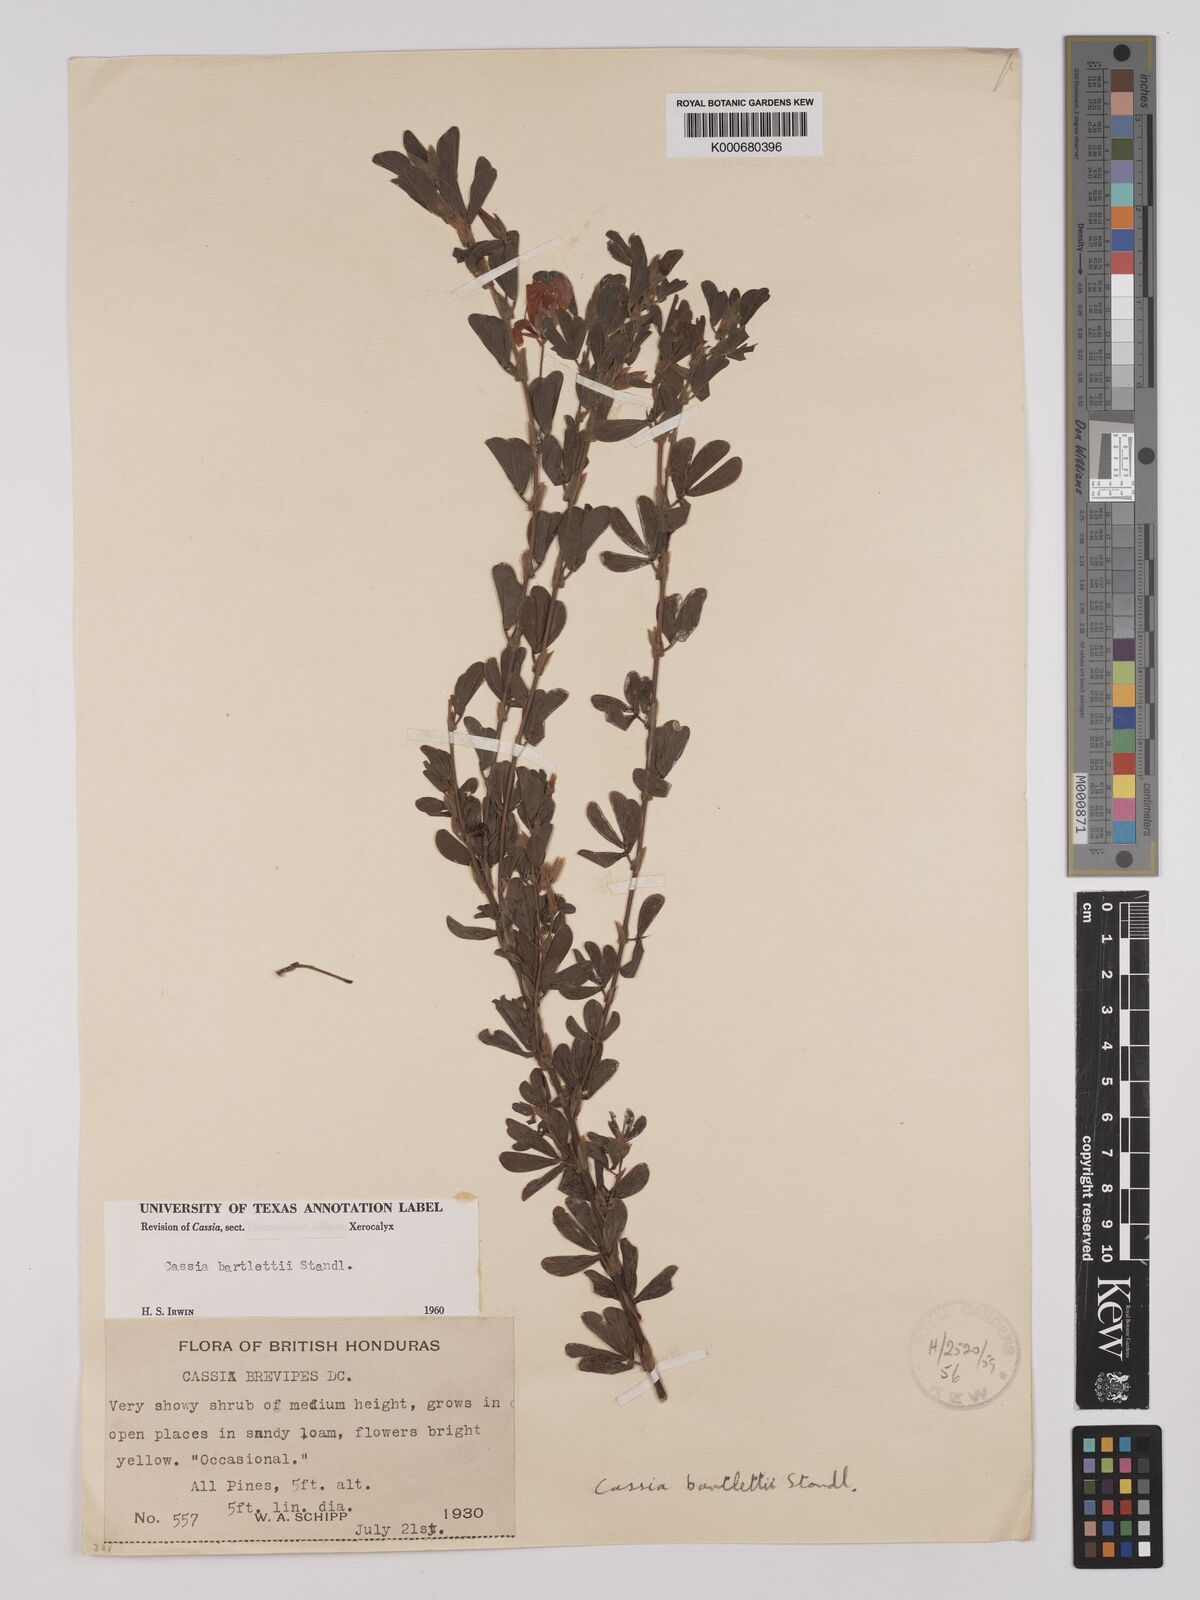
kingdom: Plantae
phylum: Tracheophyta
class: Magnoliopsida
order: Fabales
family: Fabaceae
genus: Chamaecrista
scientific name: Chamaecrista desvauxii
